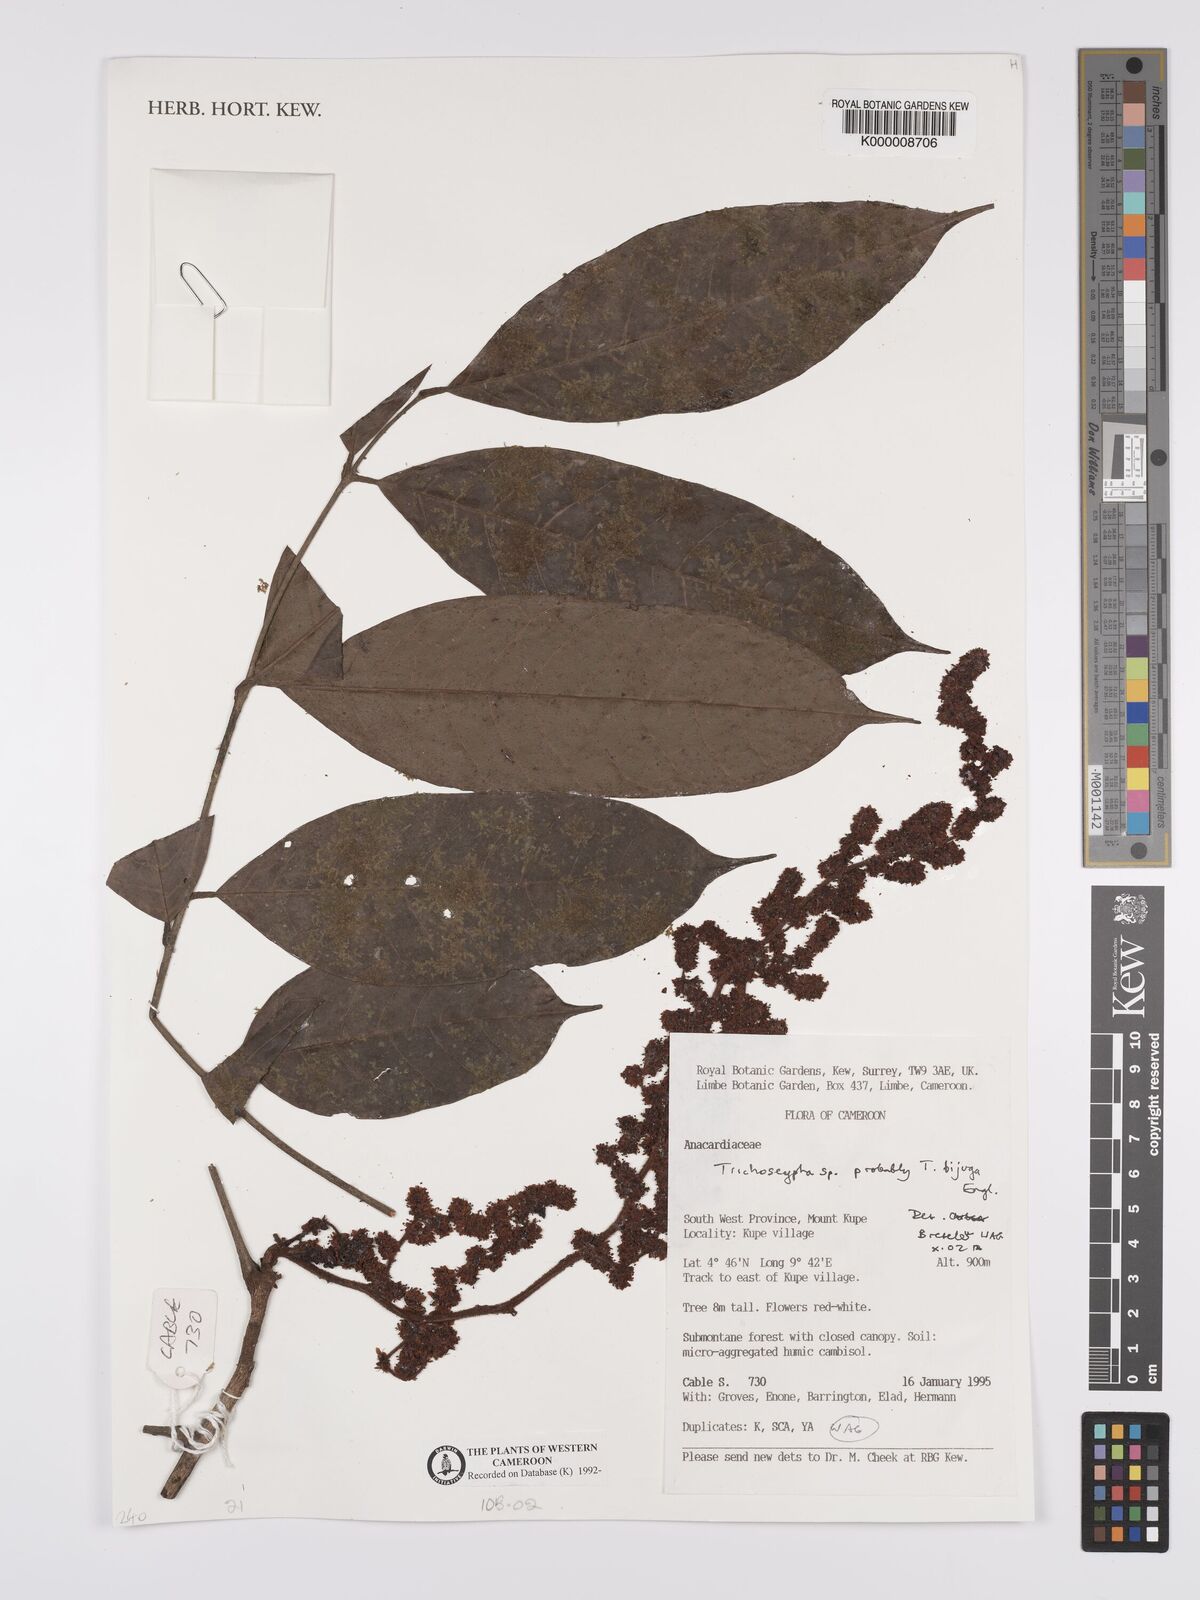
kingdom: Plantae
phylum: Tracheophyta
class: Magnoliopsida
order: Sapindales
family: Anacardiaceae
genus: Trichoscypha
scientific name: Trichoscypha
